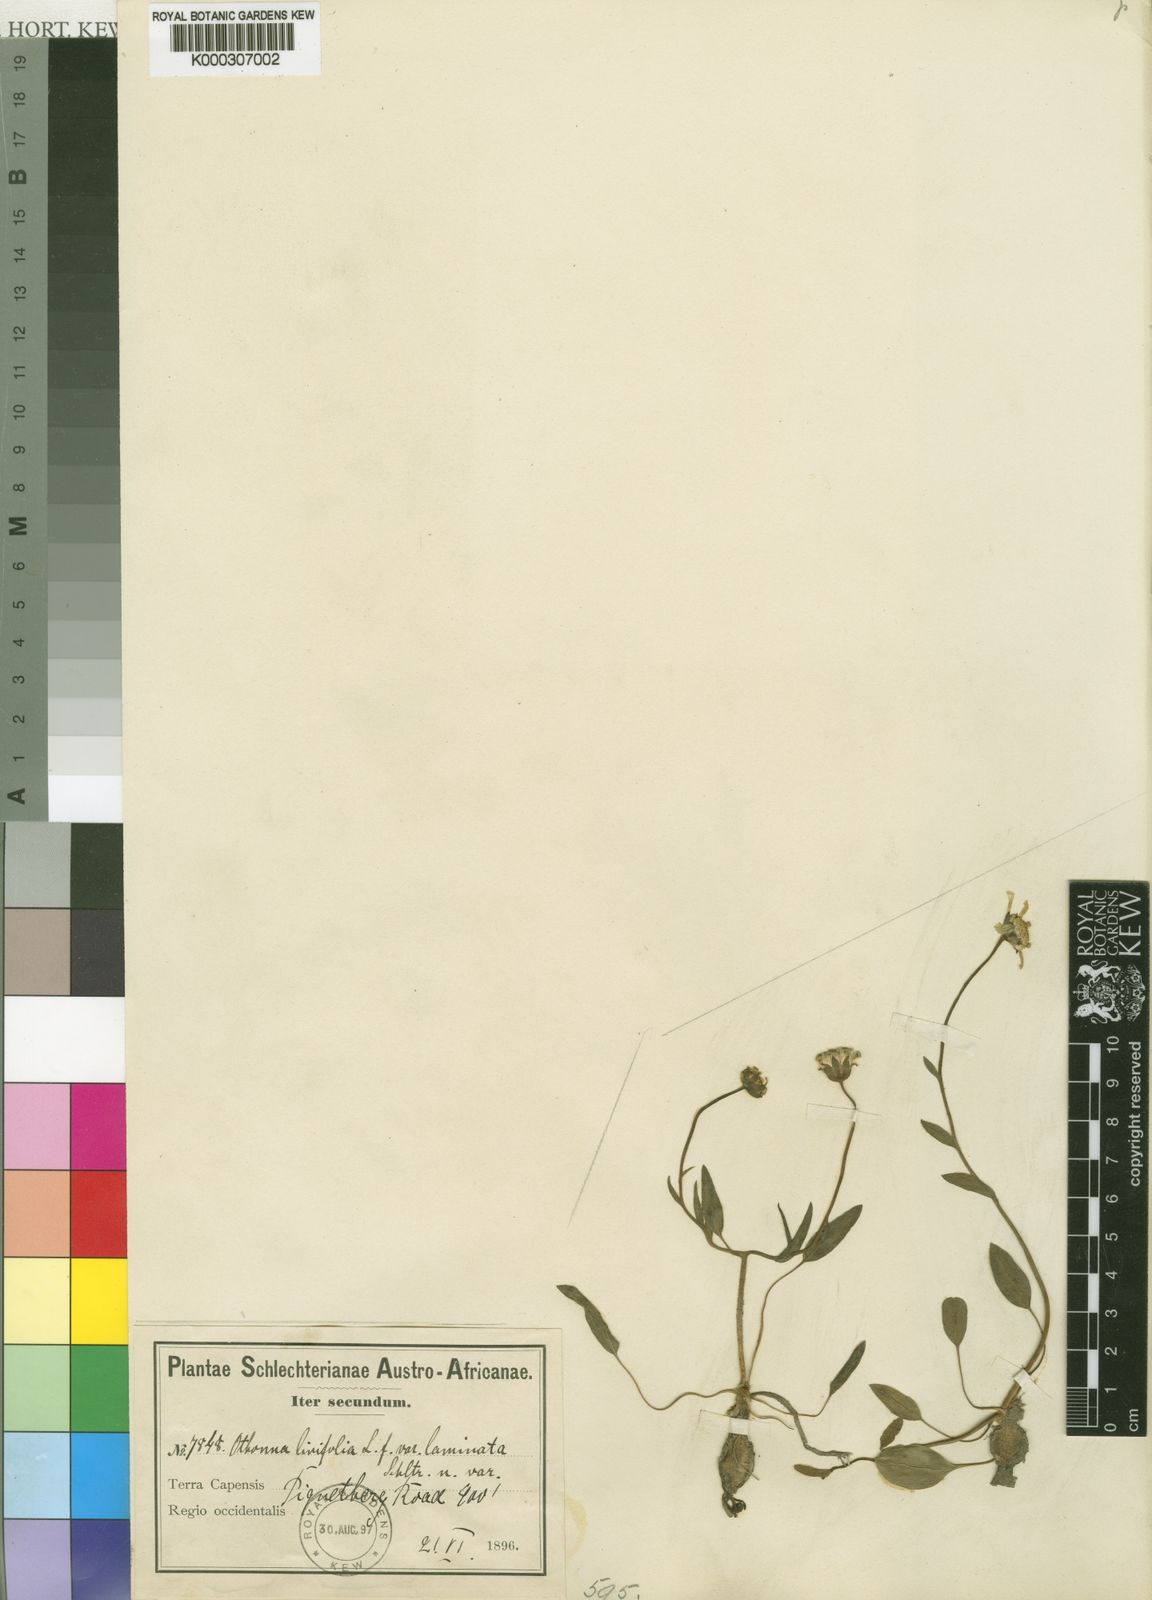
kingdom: Plantae
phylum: Tracheophyta
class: Magnoliopsida
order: Asterales
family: Asteraceae
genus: Othonna
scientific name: Othonna stenophylla
